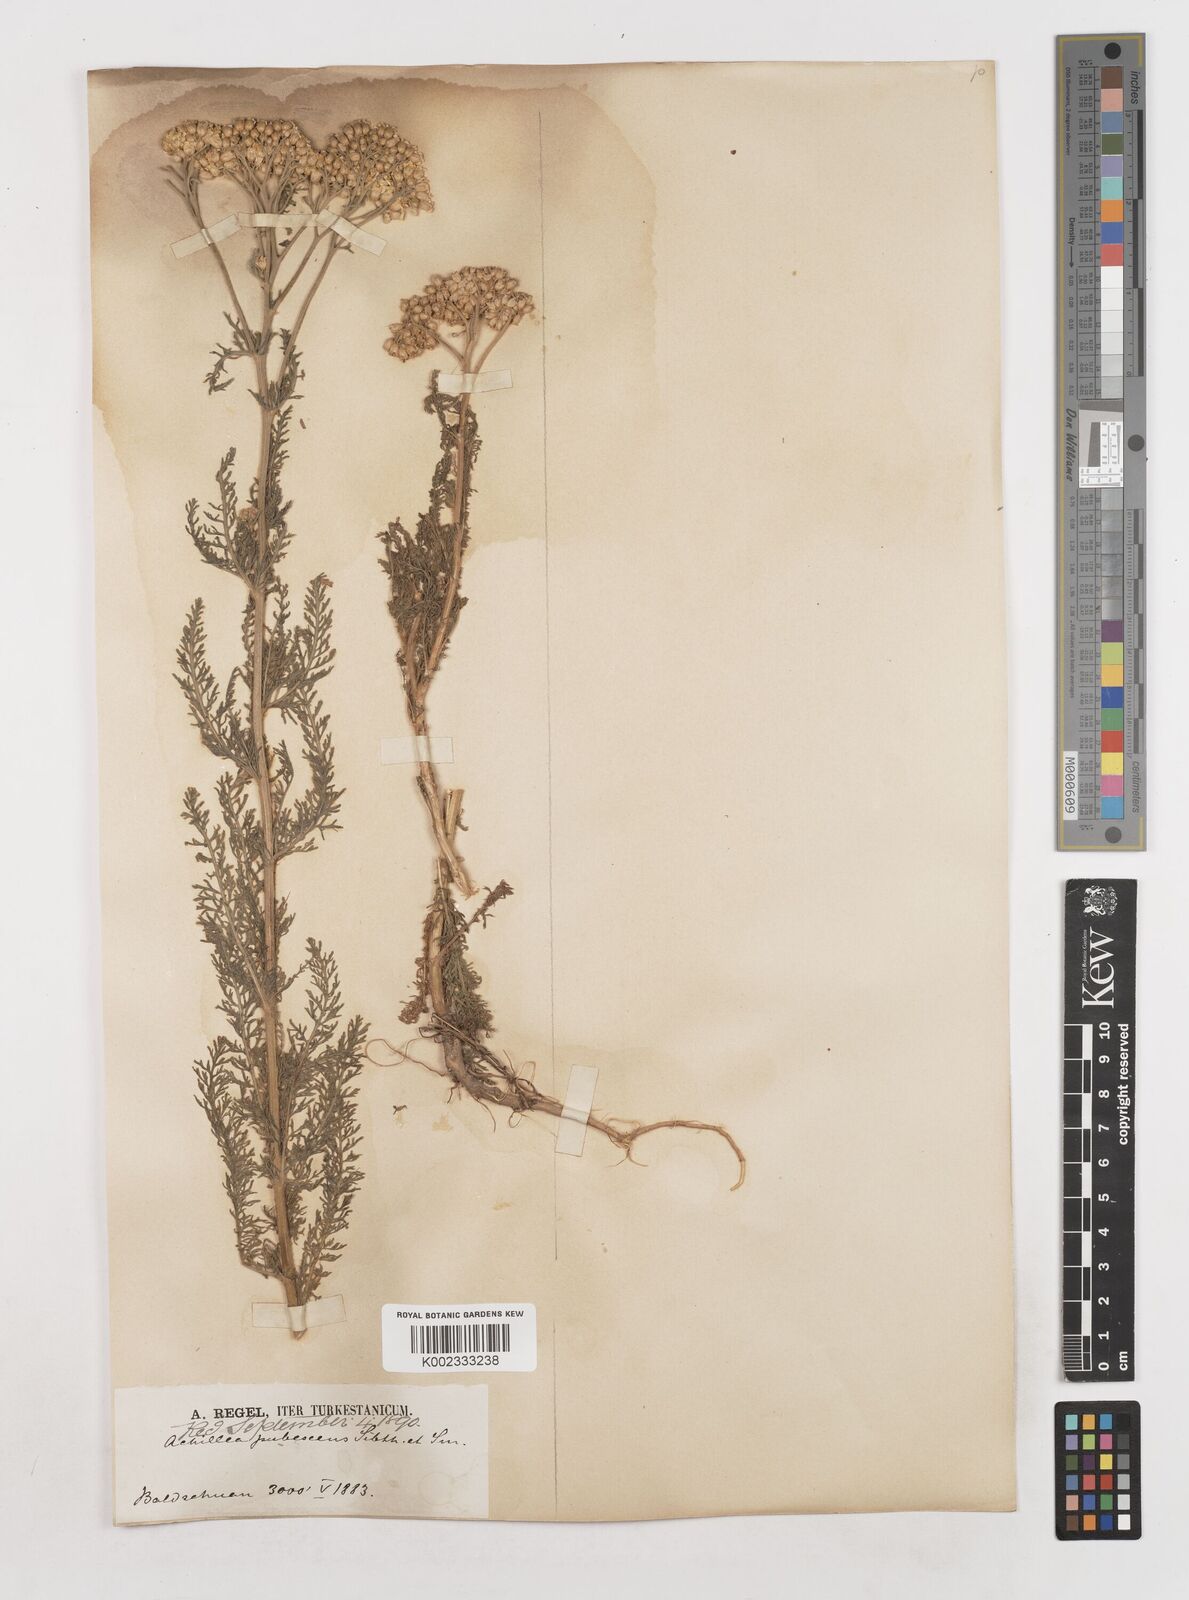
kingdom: Plantae
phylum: Tracheophyta
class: Magnoliopsida
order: Asterales
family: Asteraceae
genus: Achillea
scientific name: Achillea micrantha
